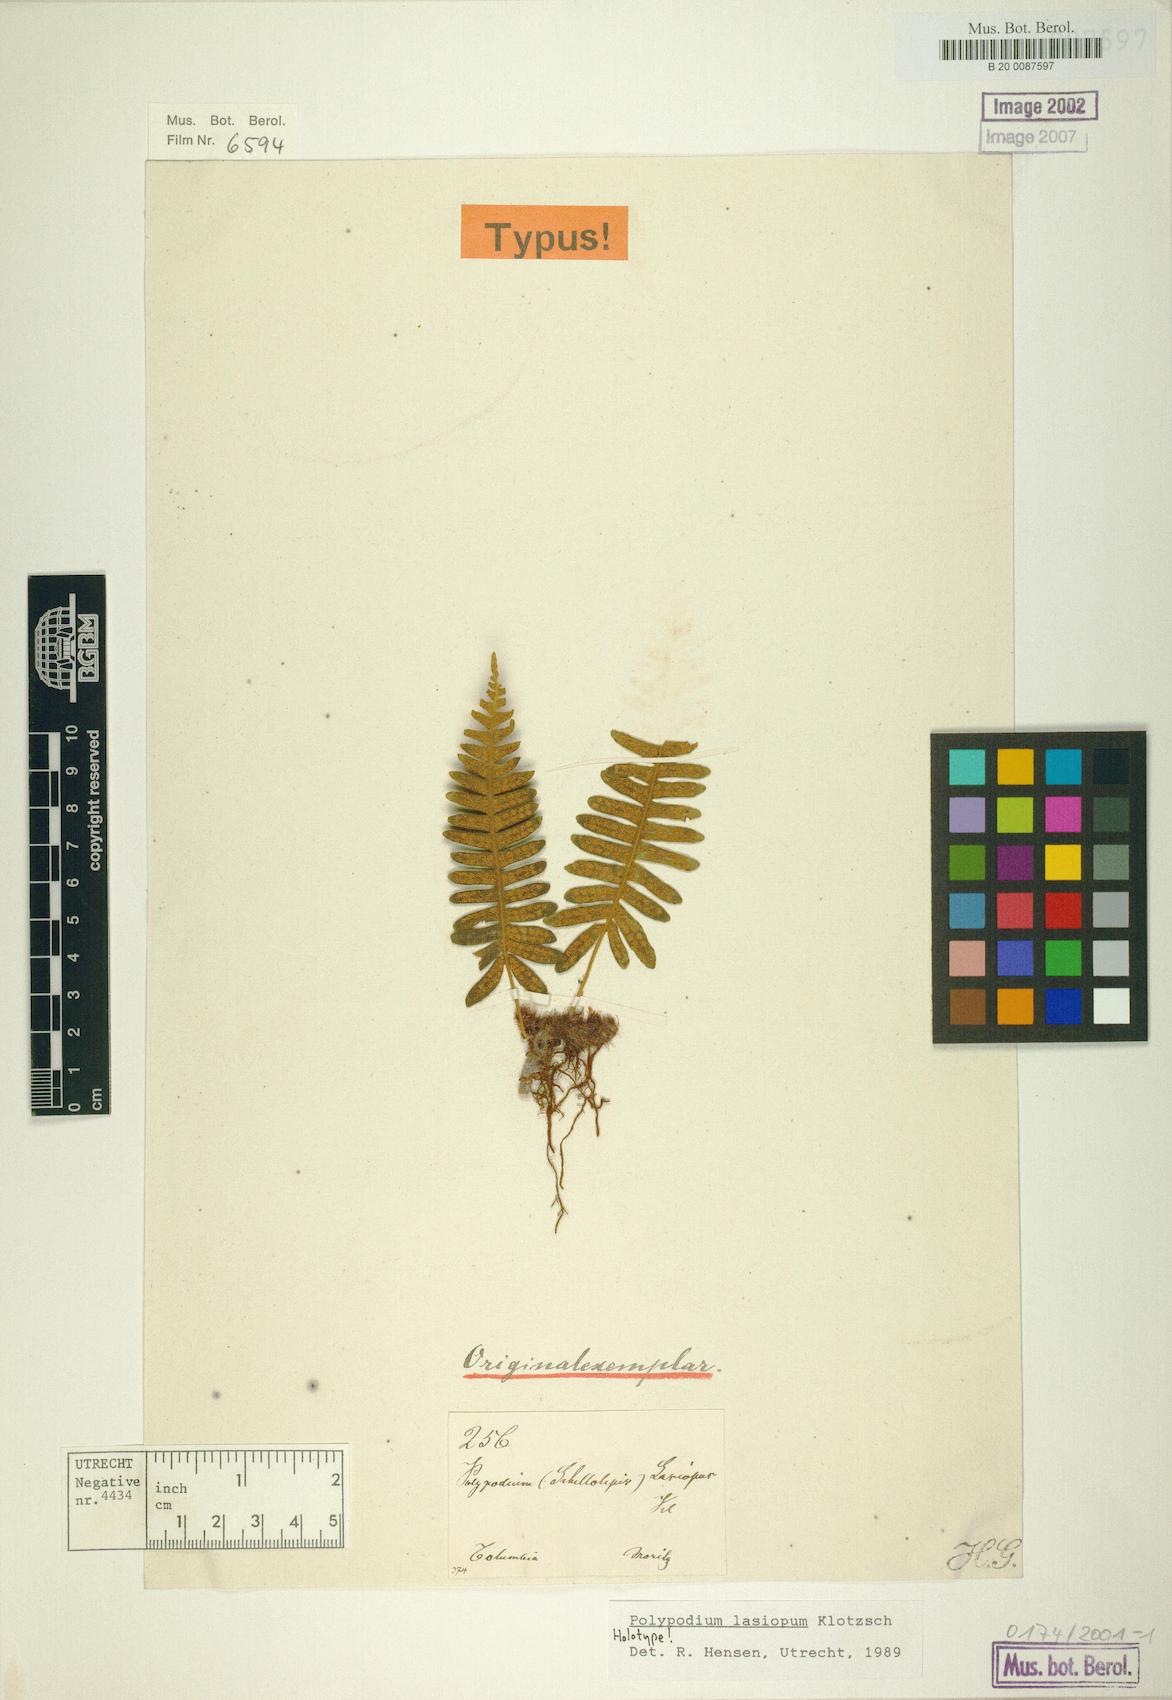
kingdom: Plantae
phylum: Tracheophyta
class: Polypodiopsida
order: Polypodiales
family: Polypodiaceae
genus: Serpocaulon
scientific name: Serpocaulon lasiopus
